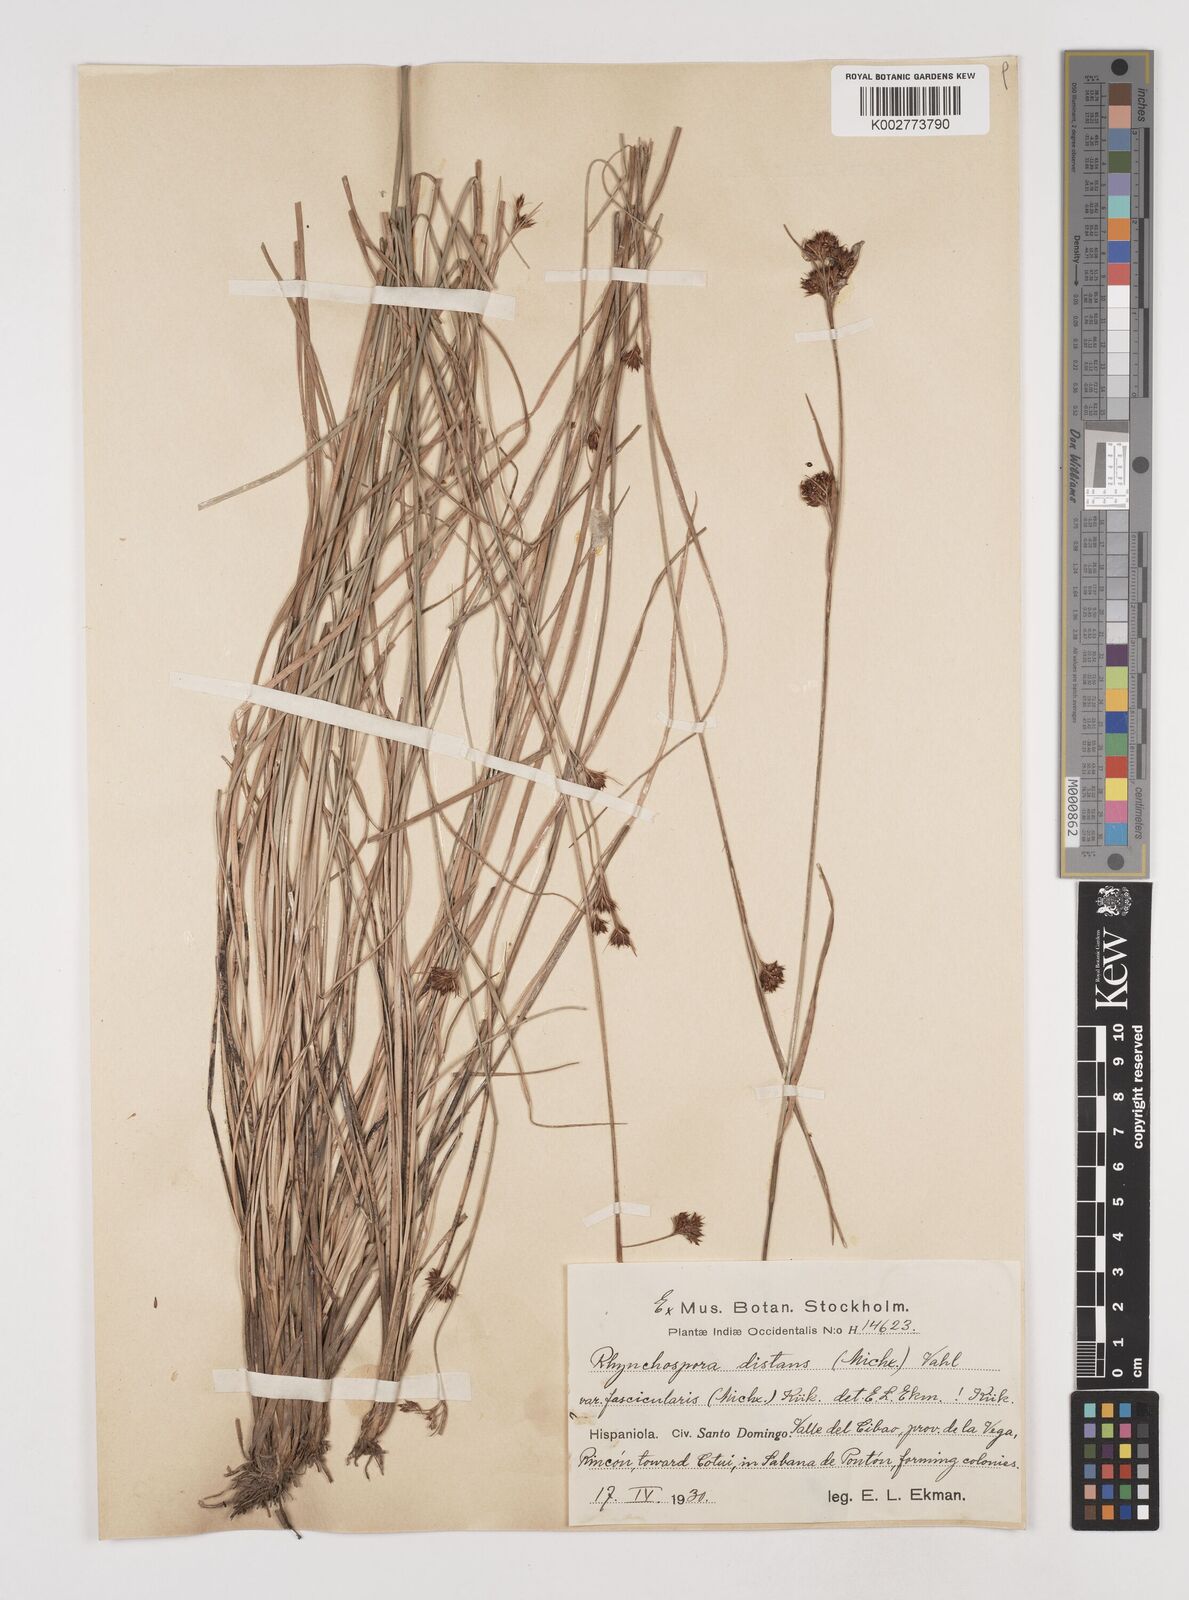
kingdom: Plantae
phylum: Tracheophyta
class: Liliopsida
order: Poales
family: Cyperaceae
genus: Rhynchospora
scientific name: Rhynchospora fascicularis
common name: Fascicled beak sedge
